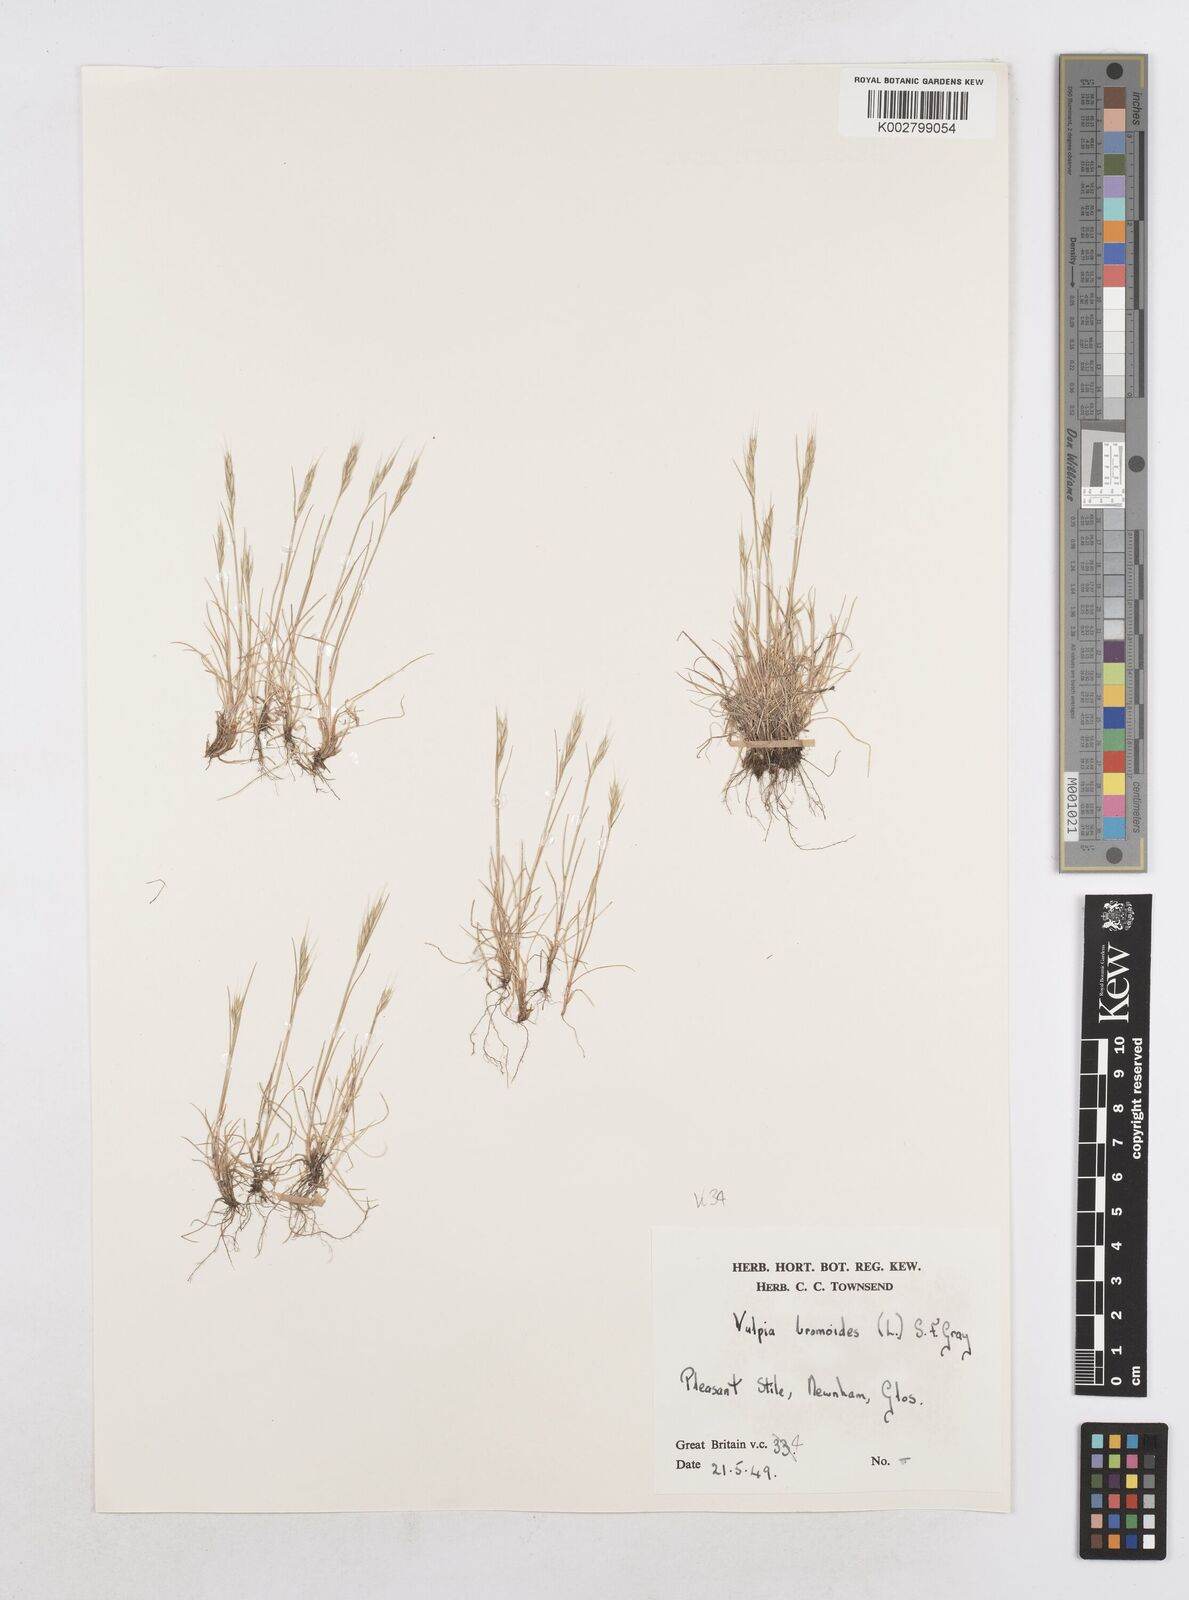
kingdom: Plantae
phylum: Tracheophyta
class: Liliopsida
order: Poales
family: Poaceae
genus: Festuca
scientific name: Festuca bromoides
